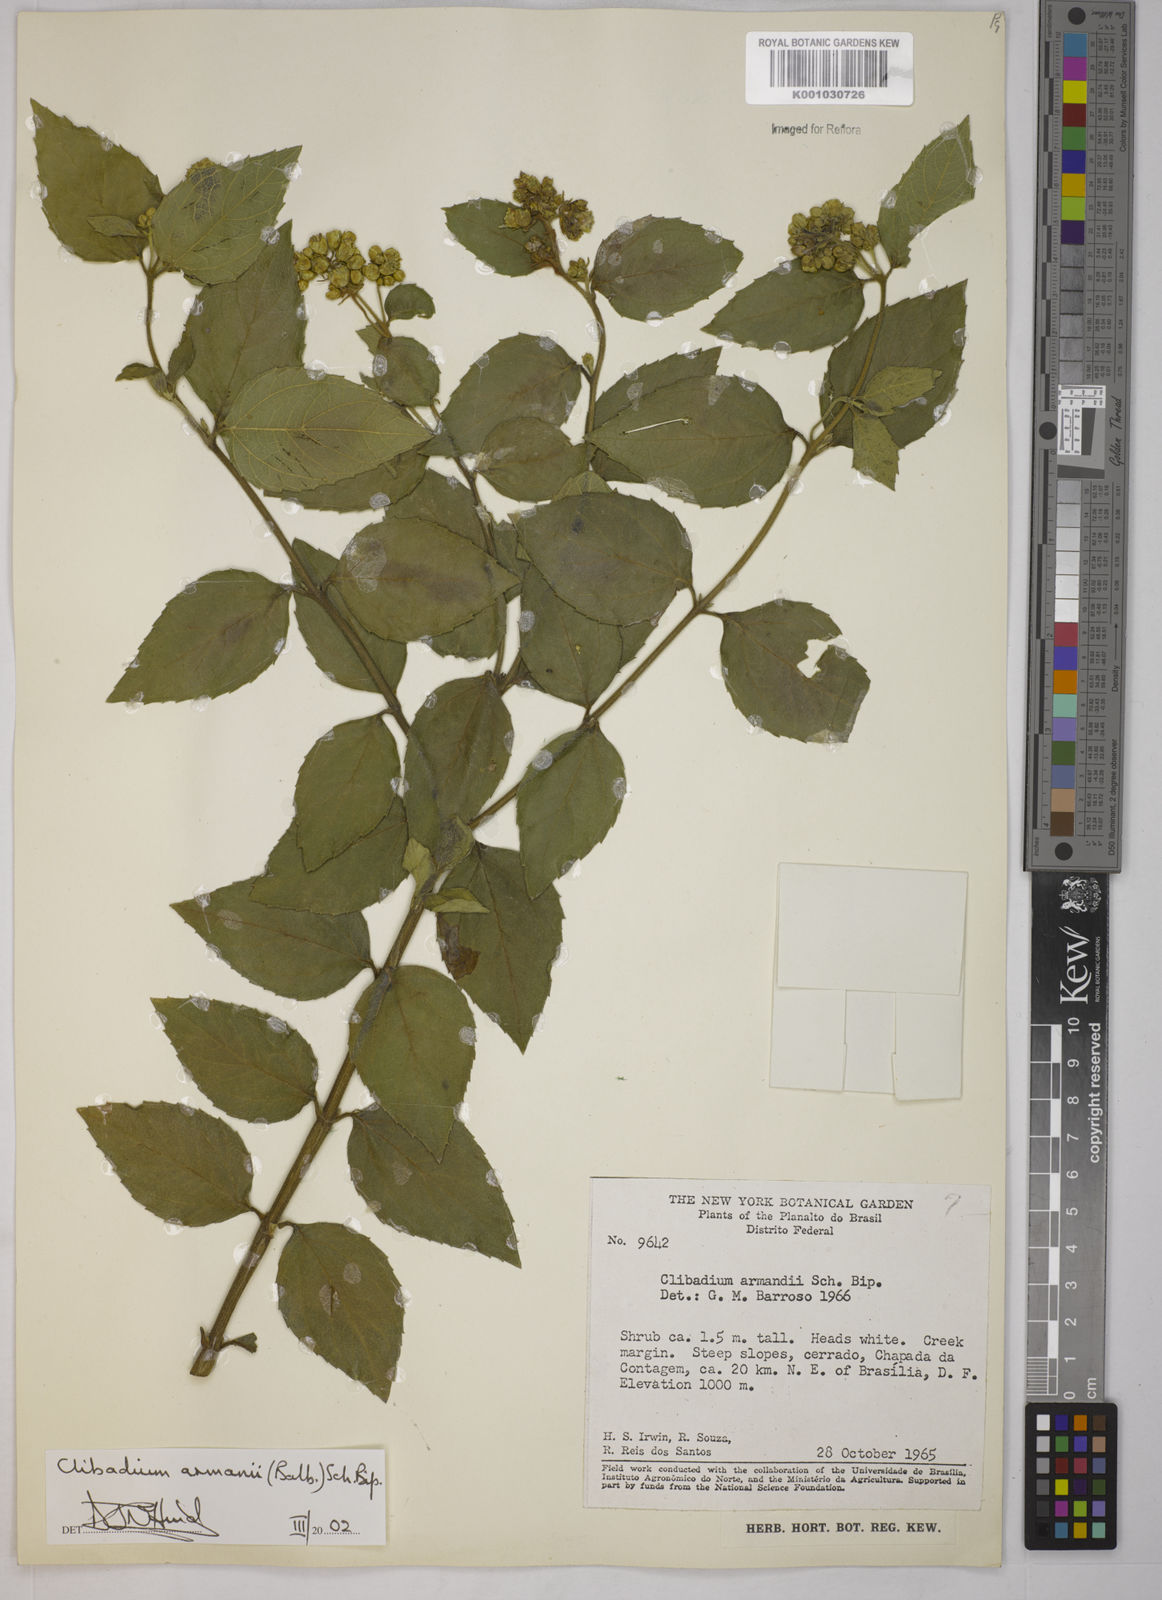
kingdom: Plantae
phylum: Tracheophyta
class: Magnoliopsida
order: Asterales
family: Asteraceae
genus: Clibadium
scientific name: Clibadium armanii
